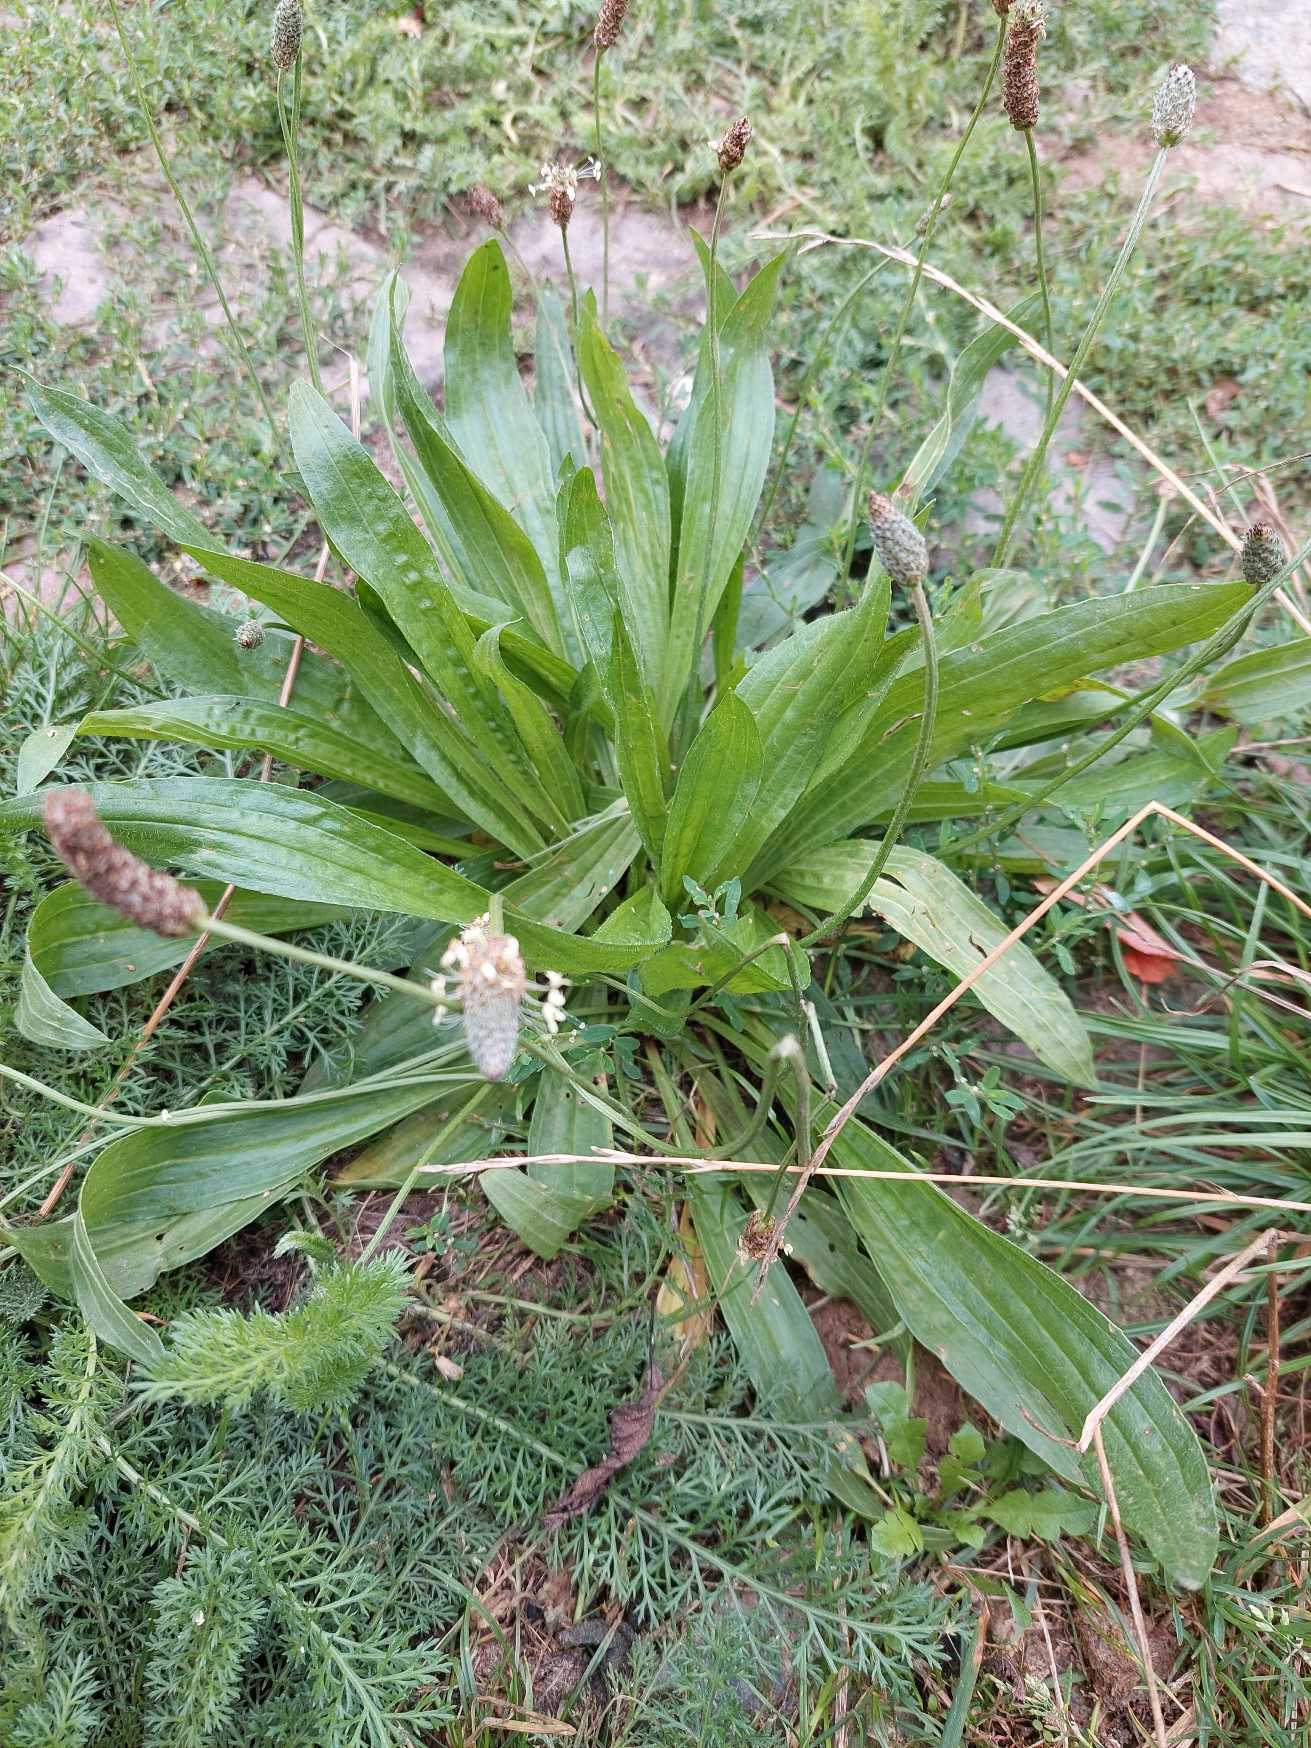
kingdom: Plantae
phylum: Tracheophyta
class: Magnoliopsida
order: Lamiales
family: Plantaginaceae
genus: Plantago
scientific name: Plantago lanceolata
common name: Lancet-vejbred
